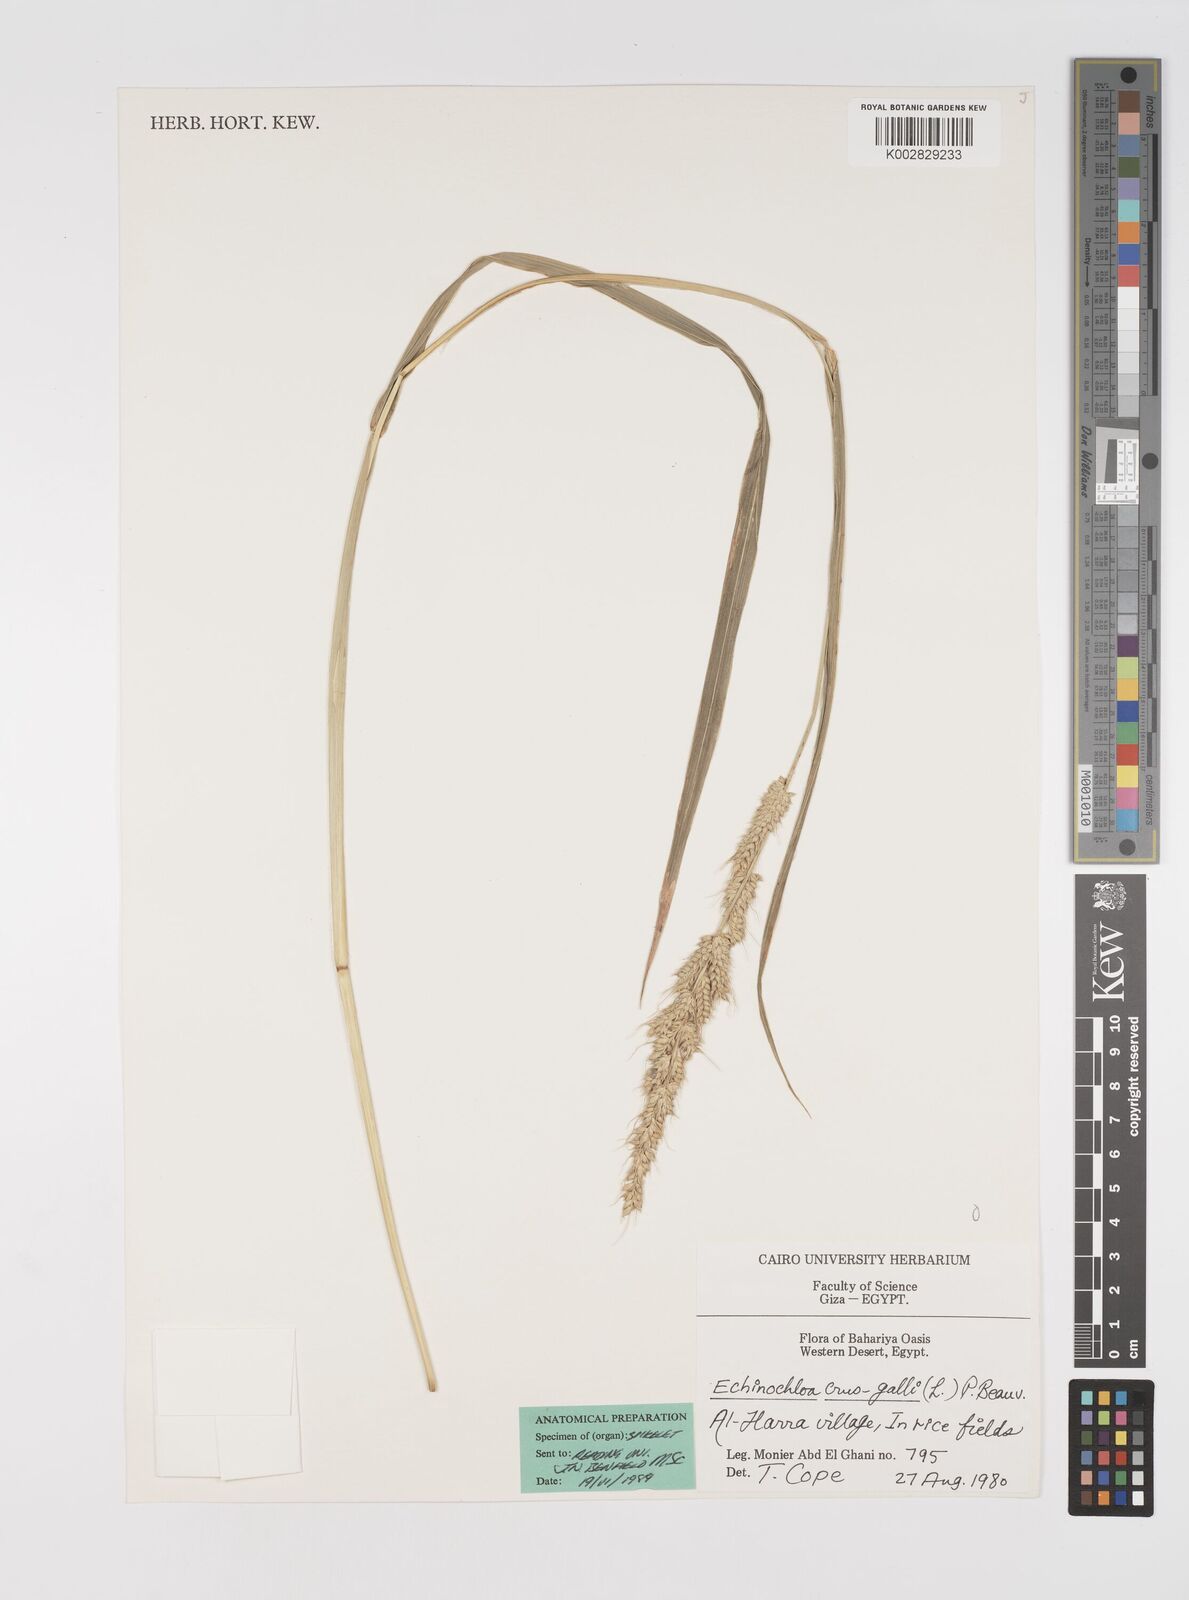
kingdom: Plantae
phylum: Tracheophyta
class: Liliopsida
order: Poales
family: Poaceae
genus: Echinochloa
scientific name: Echinochloa crus-galli
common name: Cockspur
